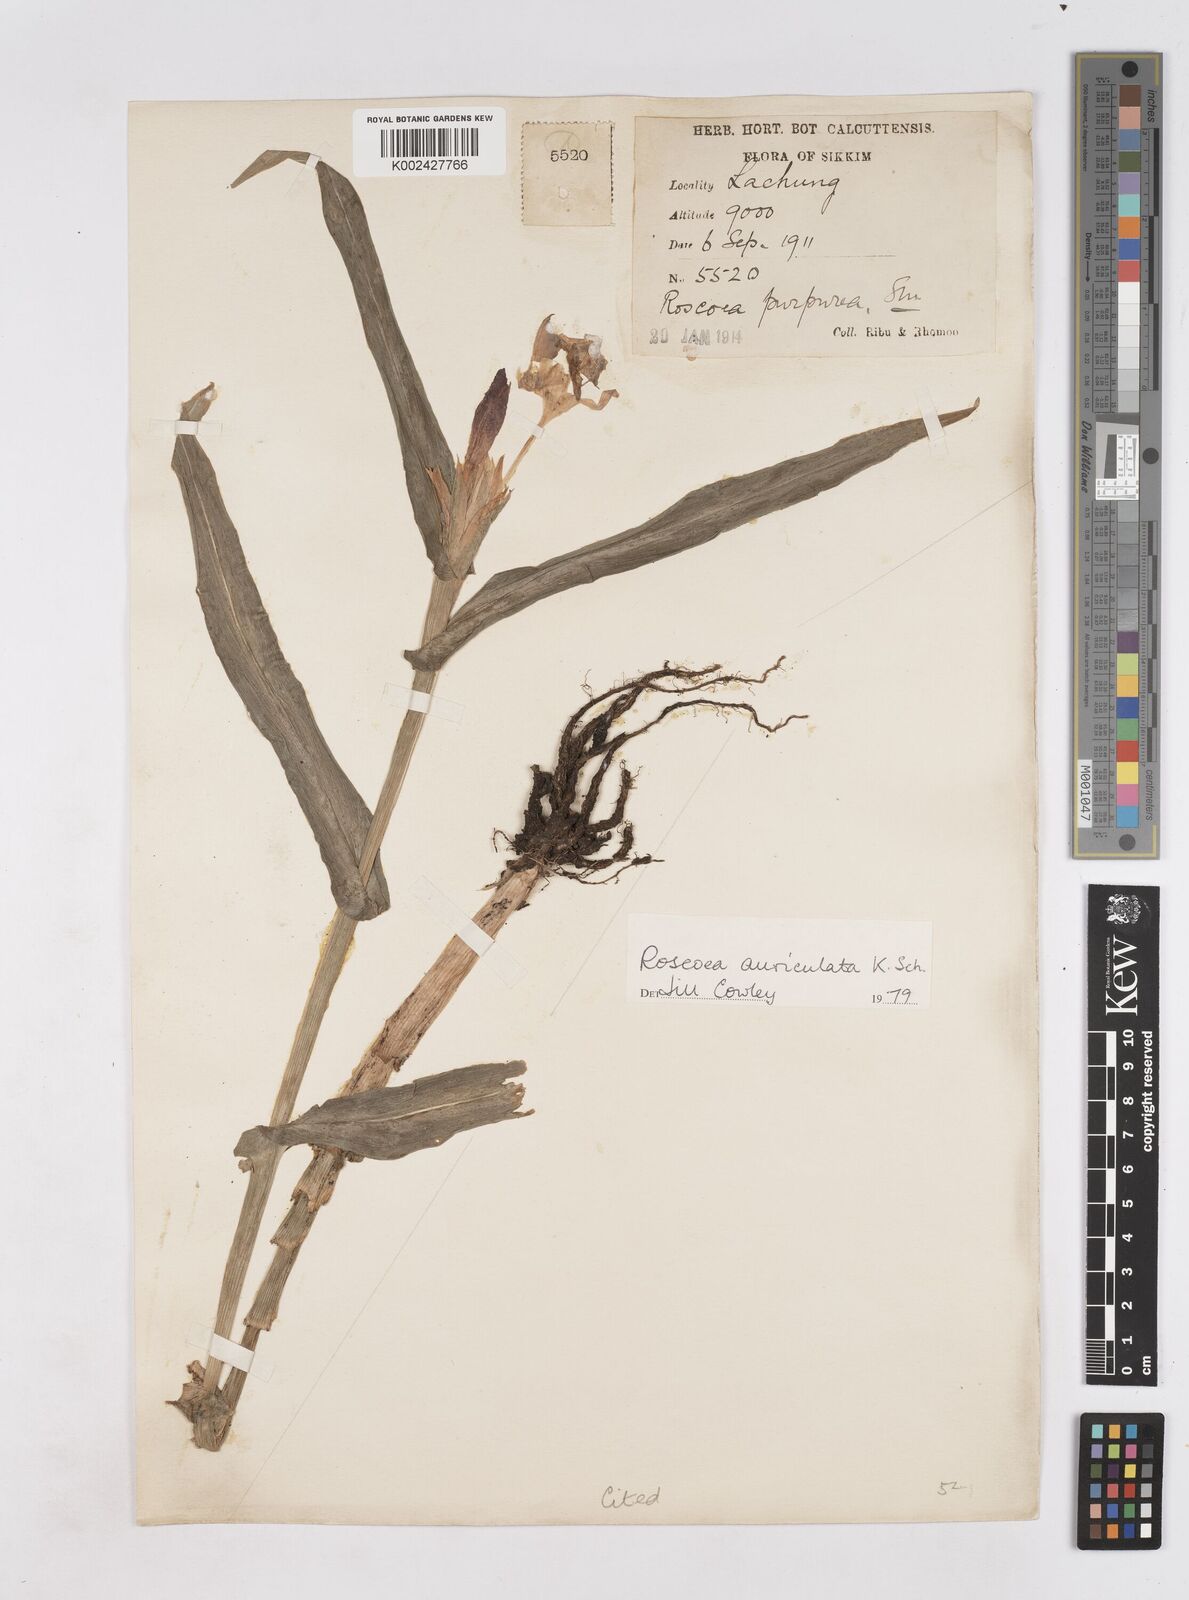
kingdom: Plantae
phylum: Tracheophyta
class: Liliopsida
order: Zingiberales
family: Zingiberaceae
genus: Roscoea
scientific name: Roscoea auriculata
